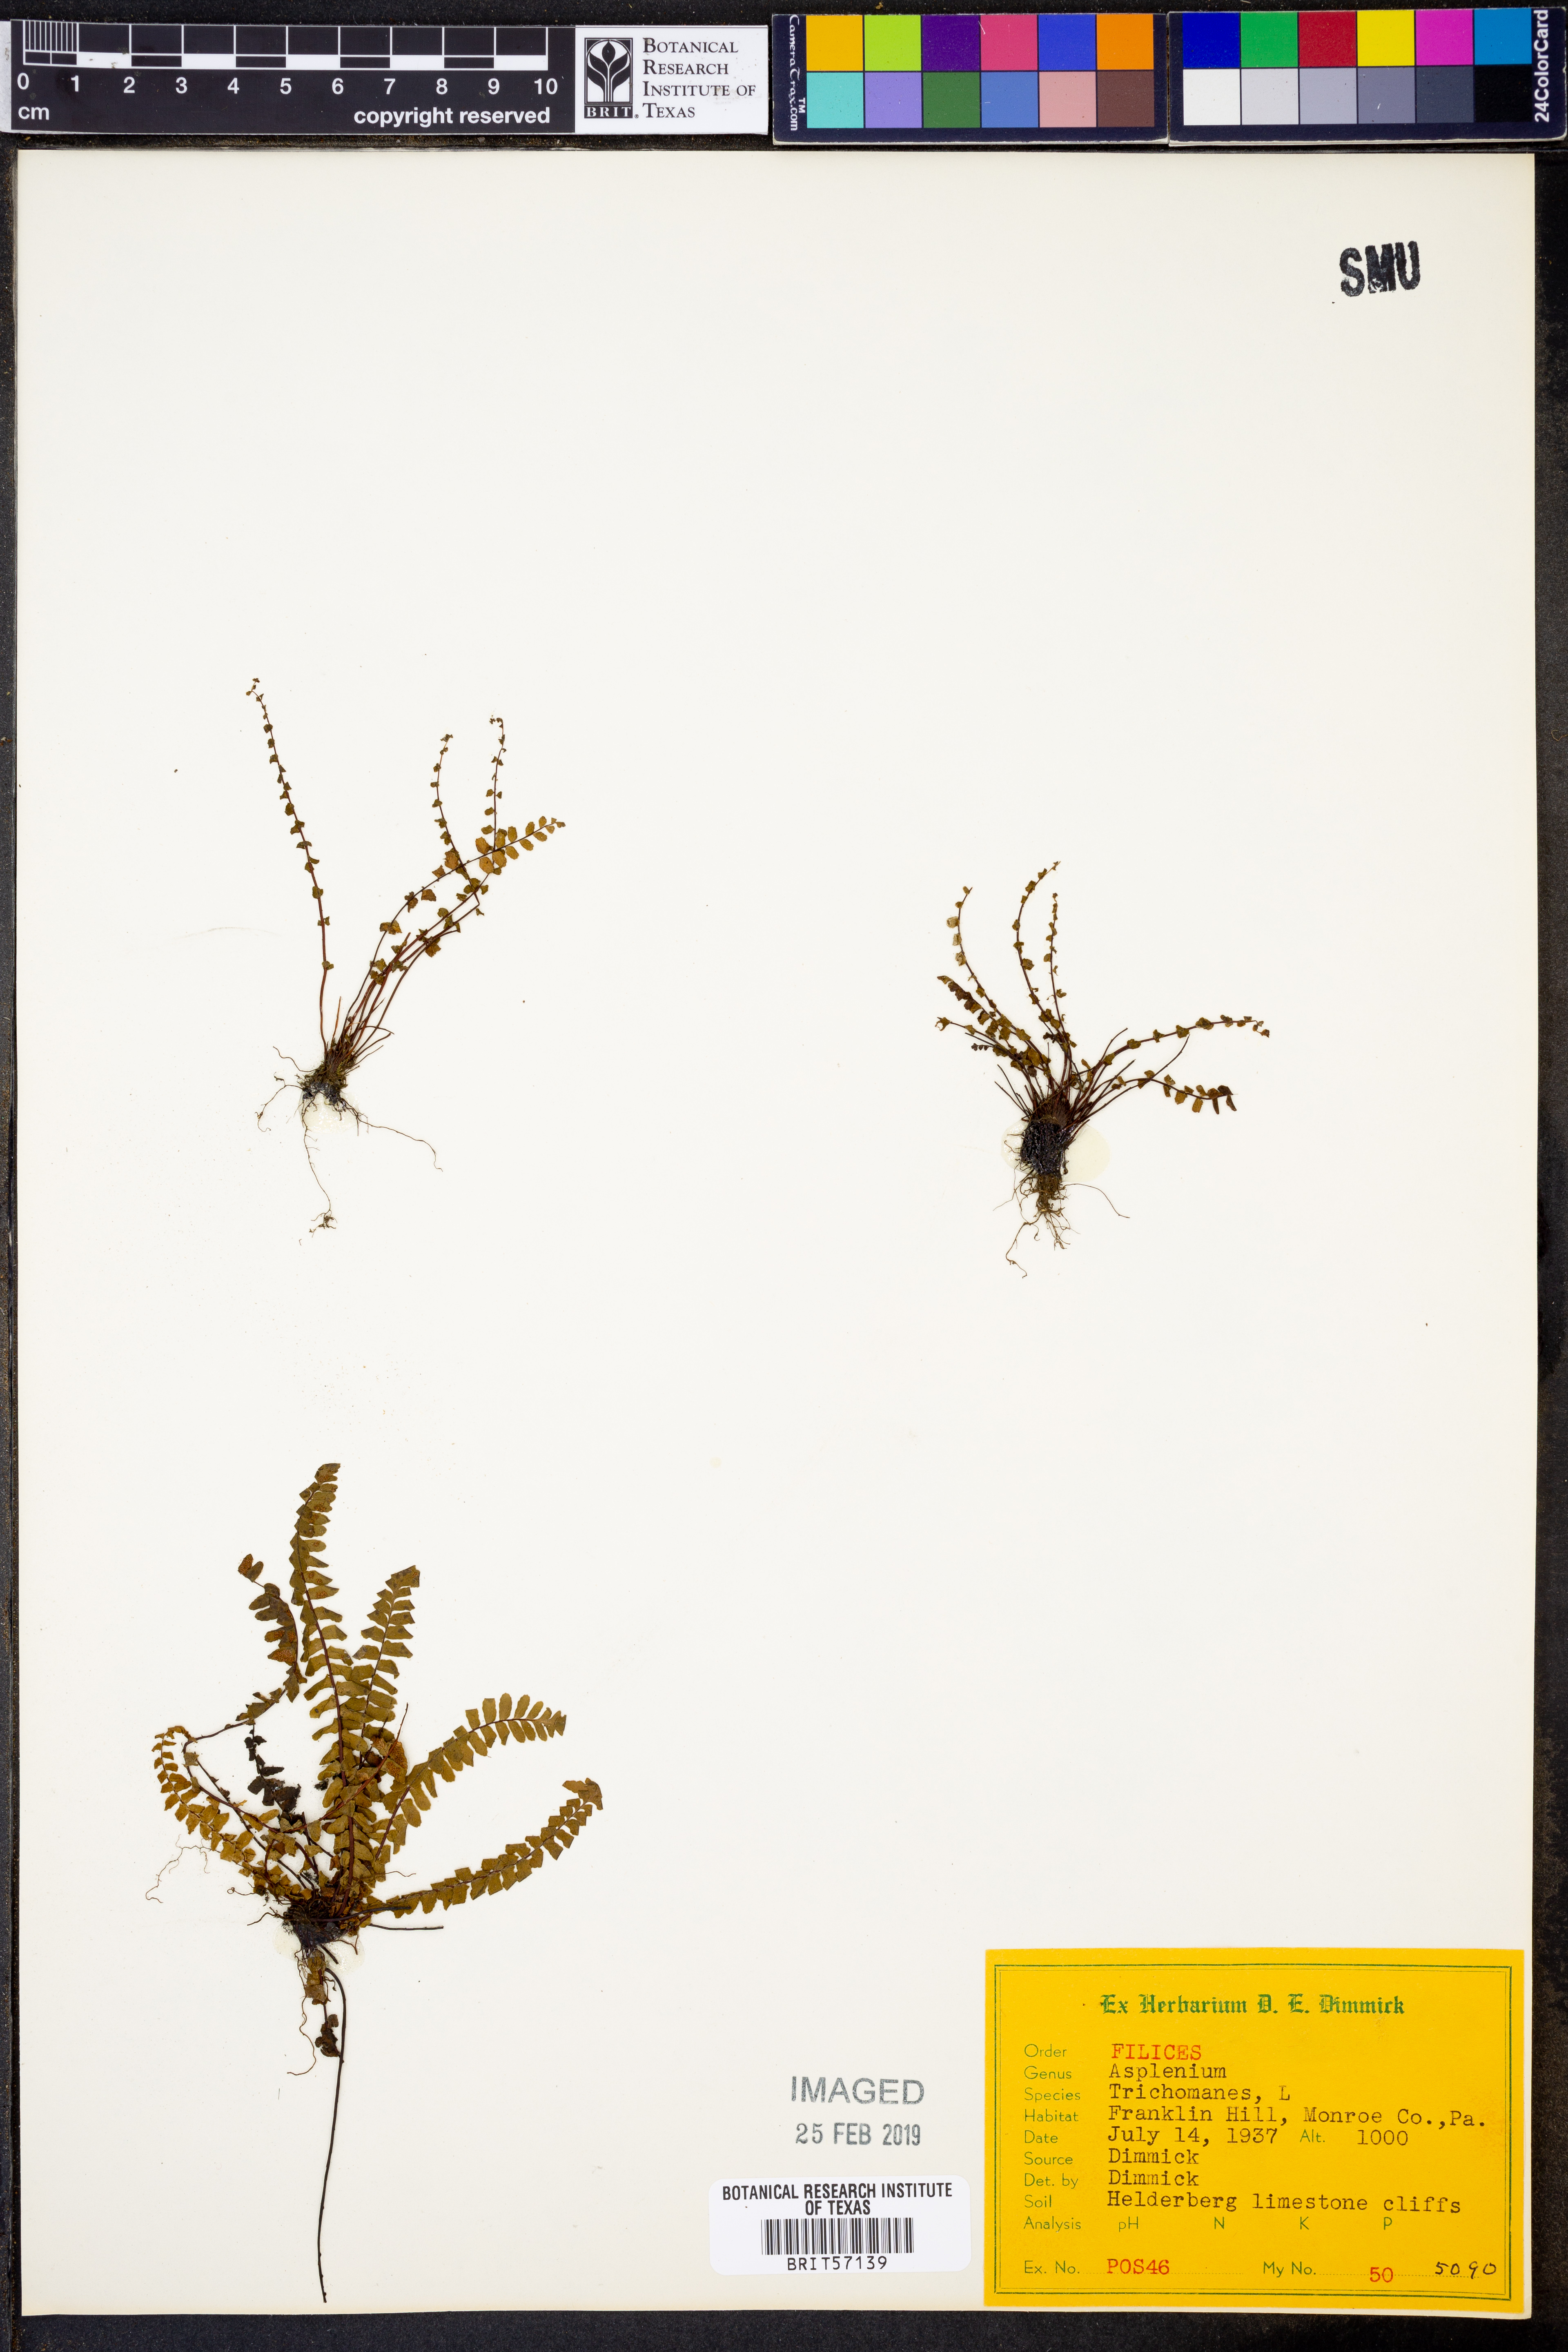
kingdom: Plantae
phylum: Tracheophyta
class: Polypodiopsida
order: Polypodiales
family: Aspleniaceae
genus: Asplenium
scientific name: Asplenium trichomanes
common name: Maidenhair spleenwort
